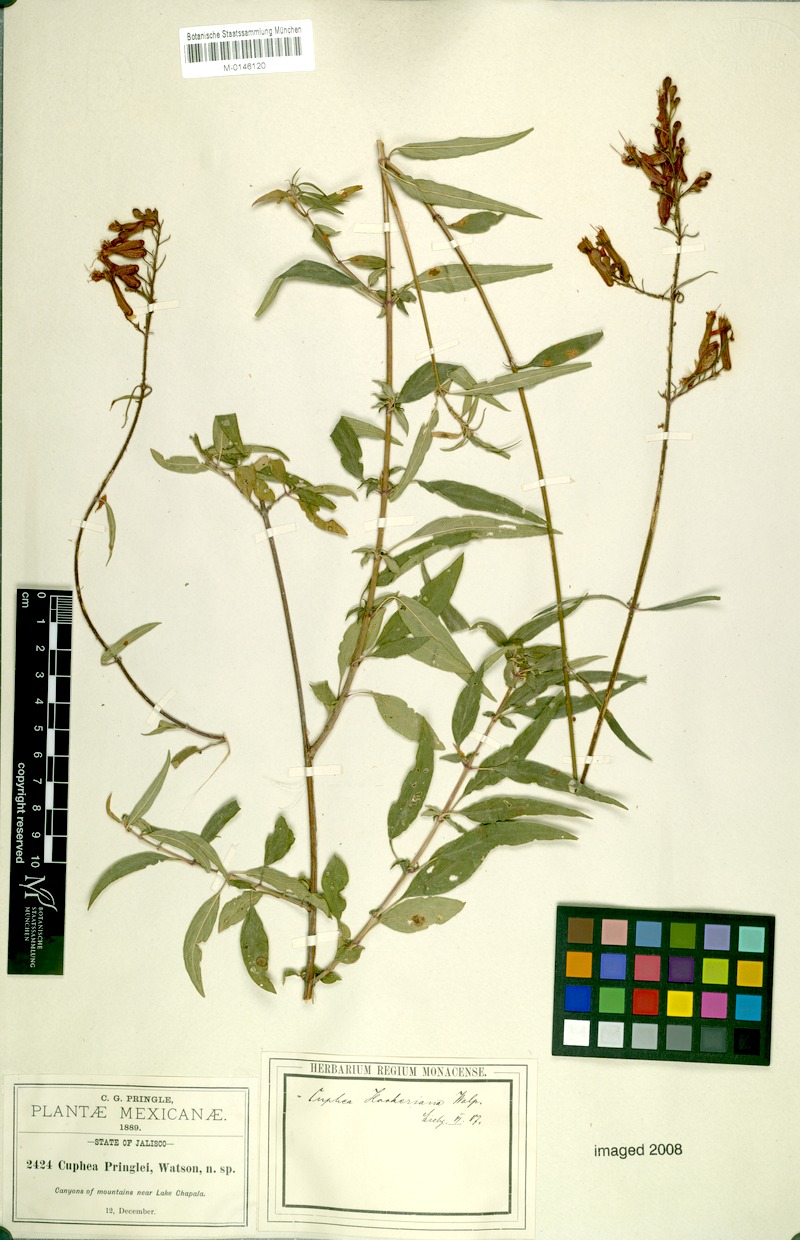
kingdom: Plantae
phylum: Tracheophyta
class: Magnoliopsida
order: Myrtales
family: Lythraceae
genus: Cuphea
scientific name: Cuphea hookeriana
